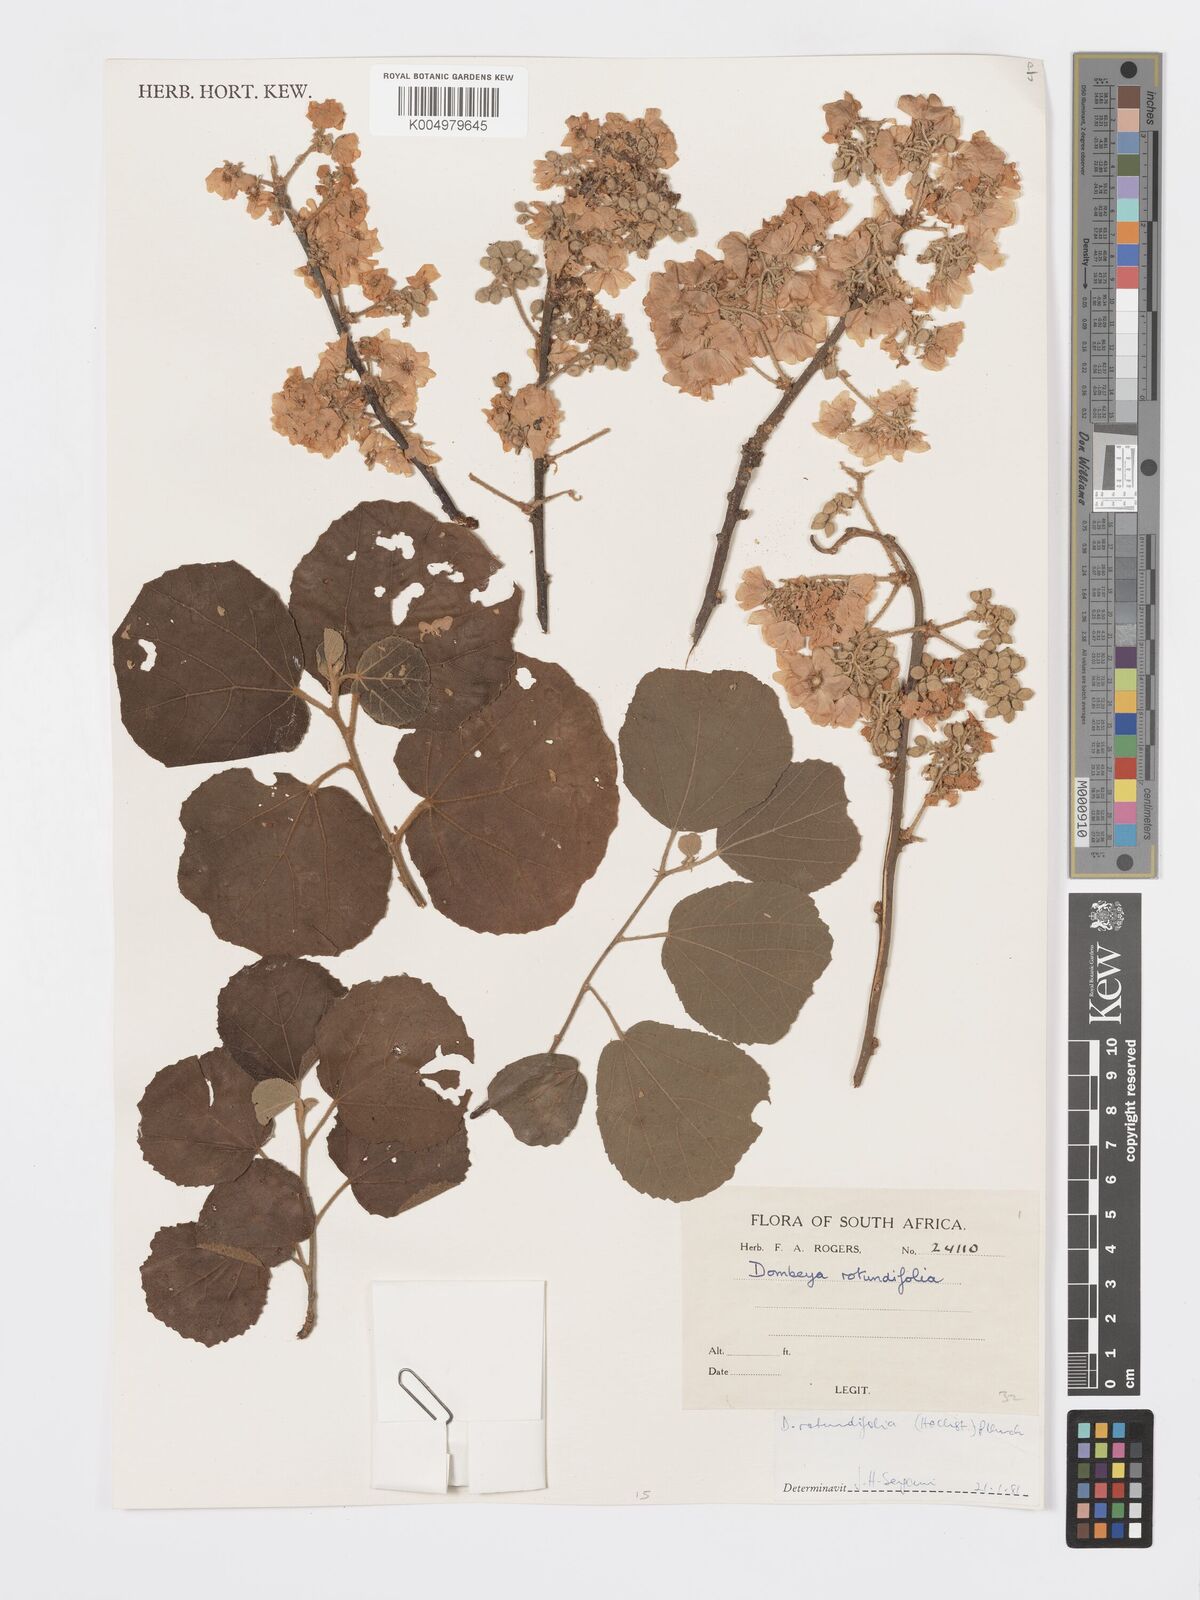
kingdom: Plantae
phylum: Tracheophyta
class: Magnoliopsida
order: Malvales
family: Malvaceae
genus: Dombeya
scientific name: Dombeya rotundifolia
